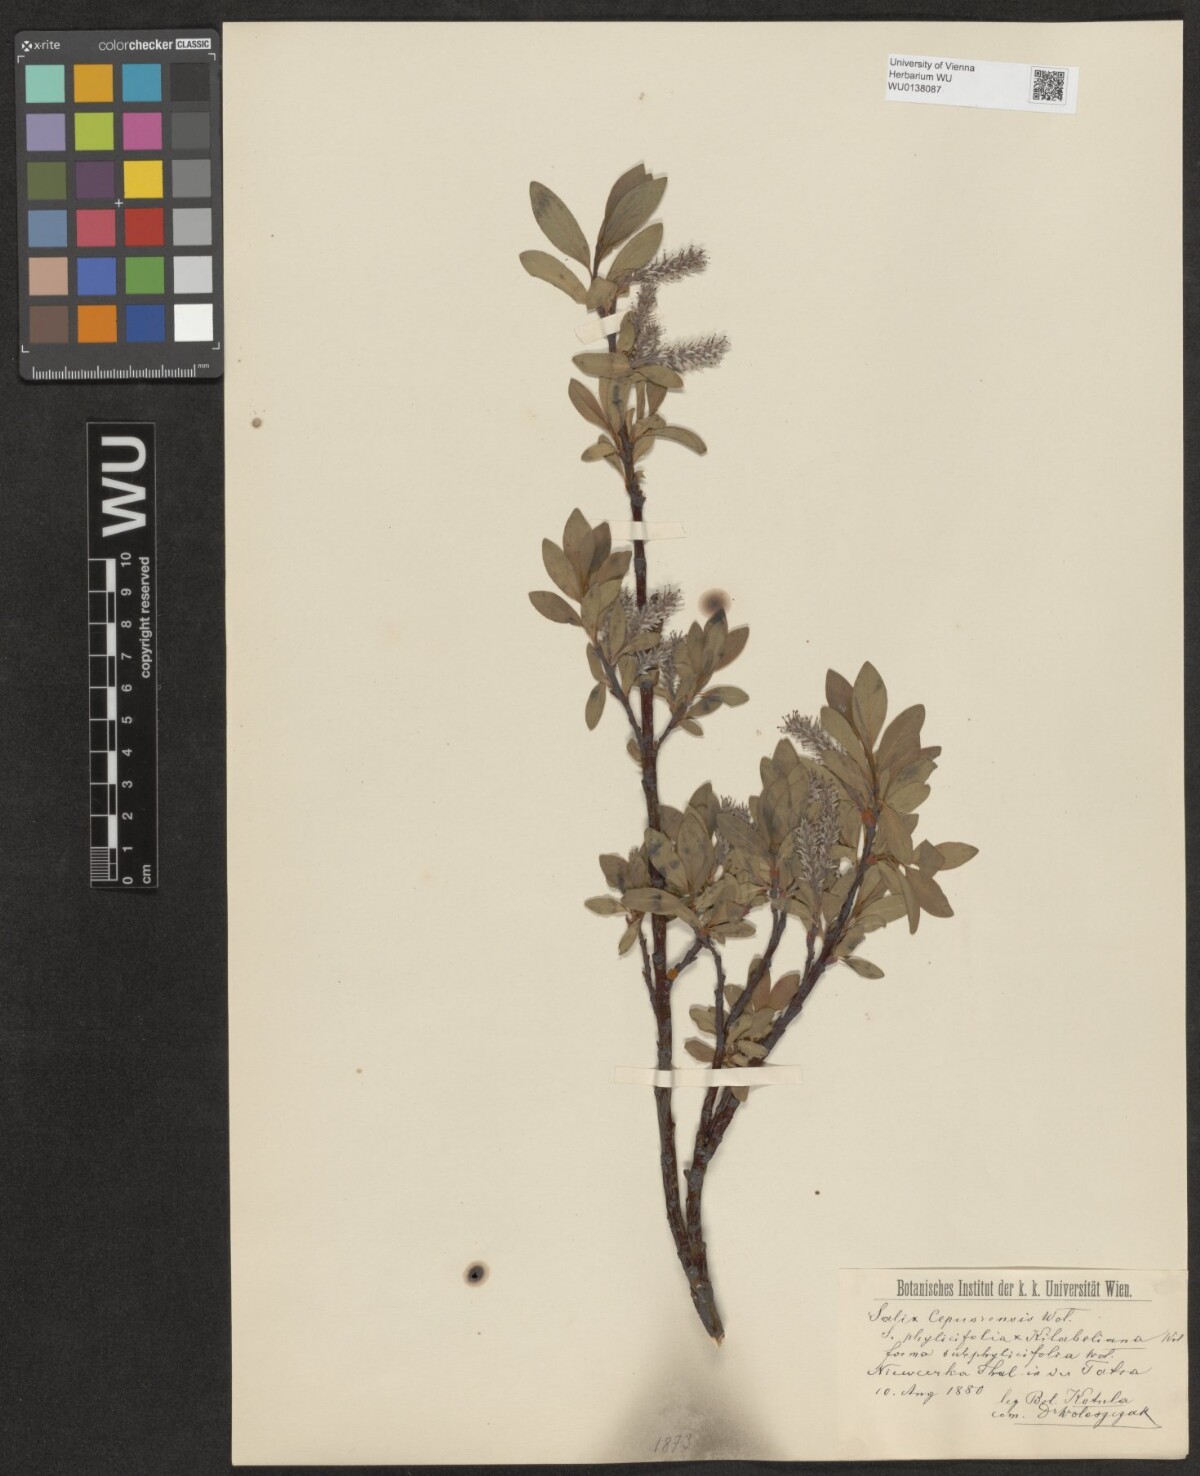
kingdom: Plantae
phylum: Tracheophyta
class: Magnoliopsida
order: Malpighiales
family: Salicaceae
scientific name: Salicaceae
